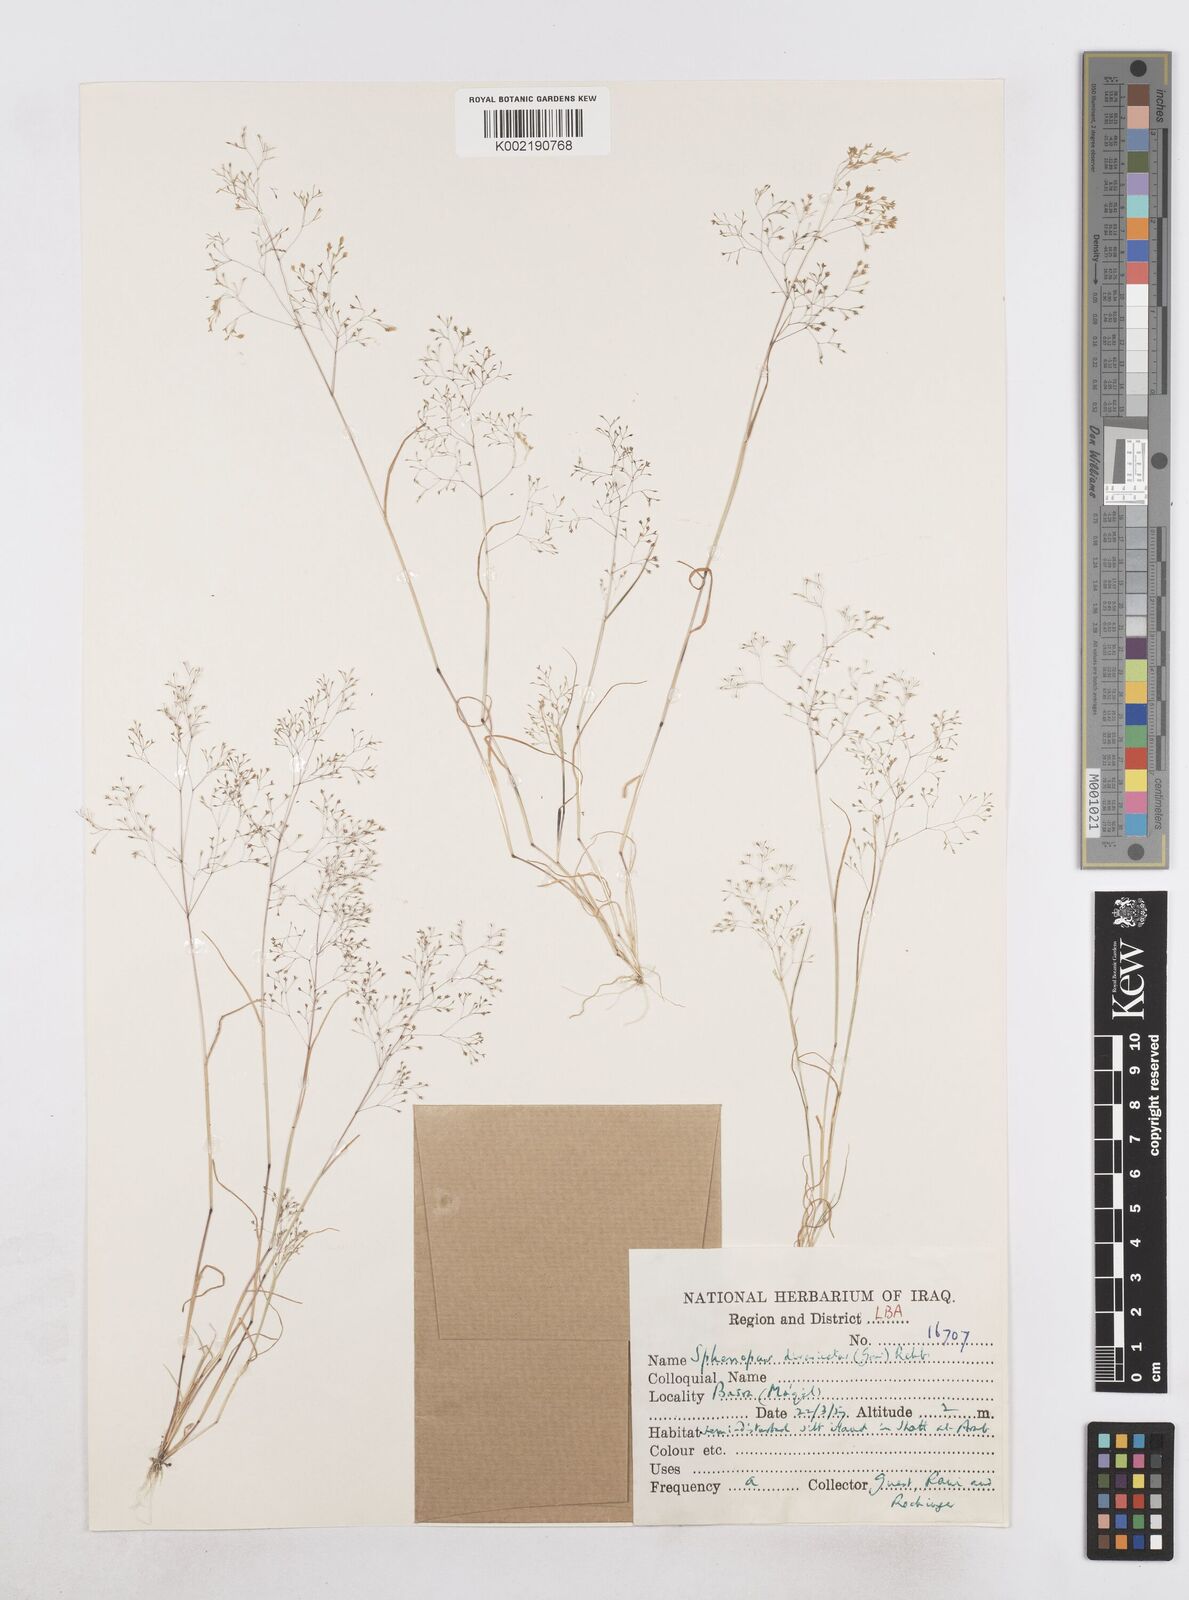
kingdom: Plantae
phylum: Tracheophyta
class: Liliopsida
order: Poales
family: Poaceae
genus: Sphenopus
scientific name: Sphenopus divaricatus
